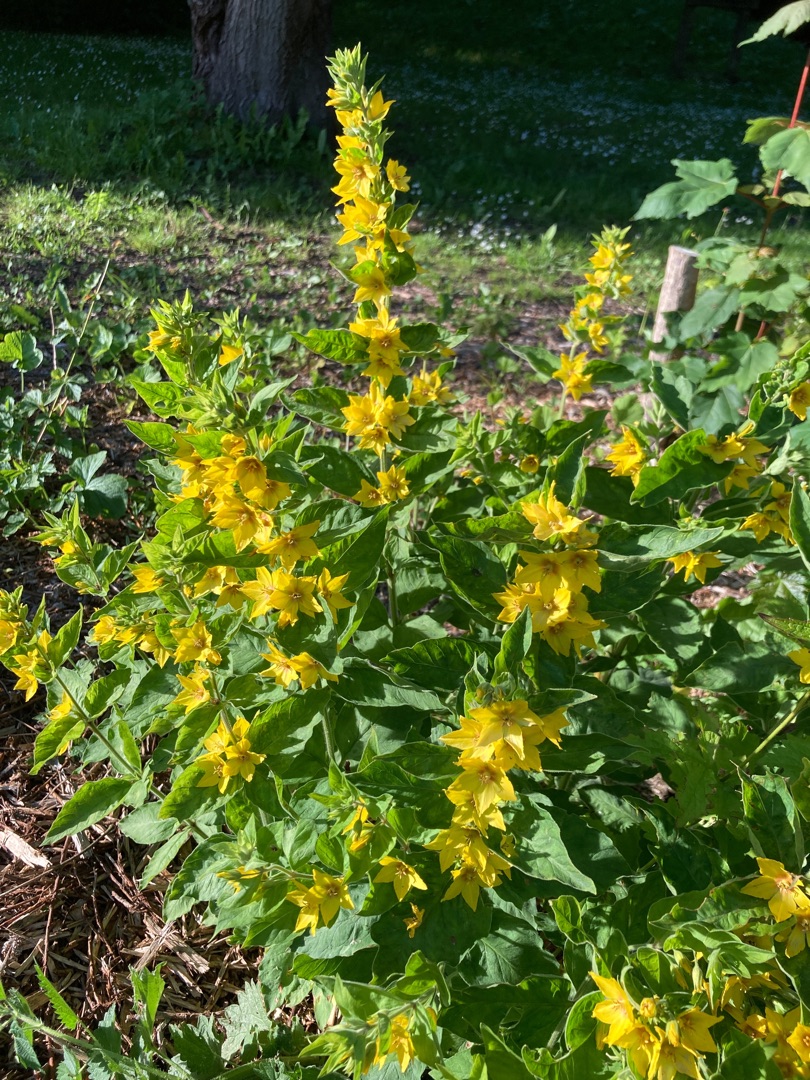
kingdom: Plantae
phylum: Tracheophyta
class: Magnoliopsida
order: Ericales
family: Primulaceae
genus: Lysimachia
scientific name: Lysimachia punctata
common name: Prikbladet fredløs
